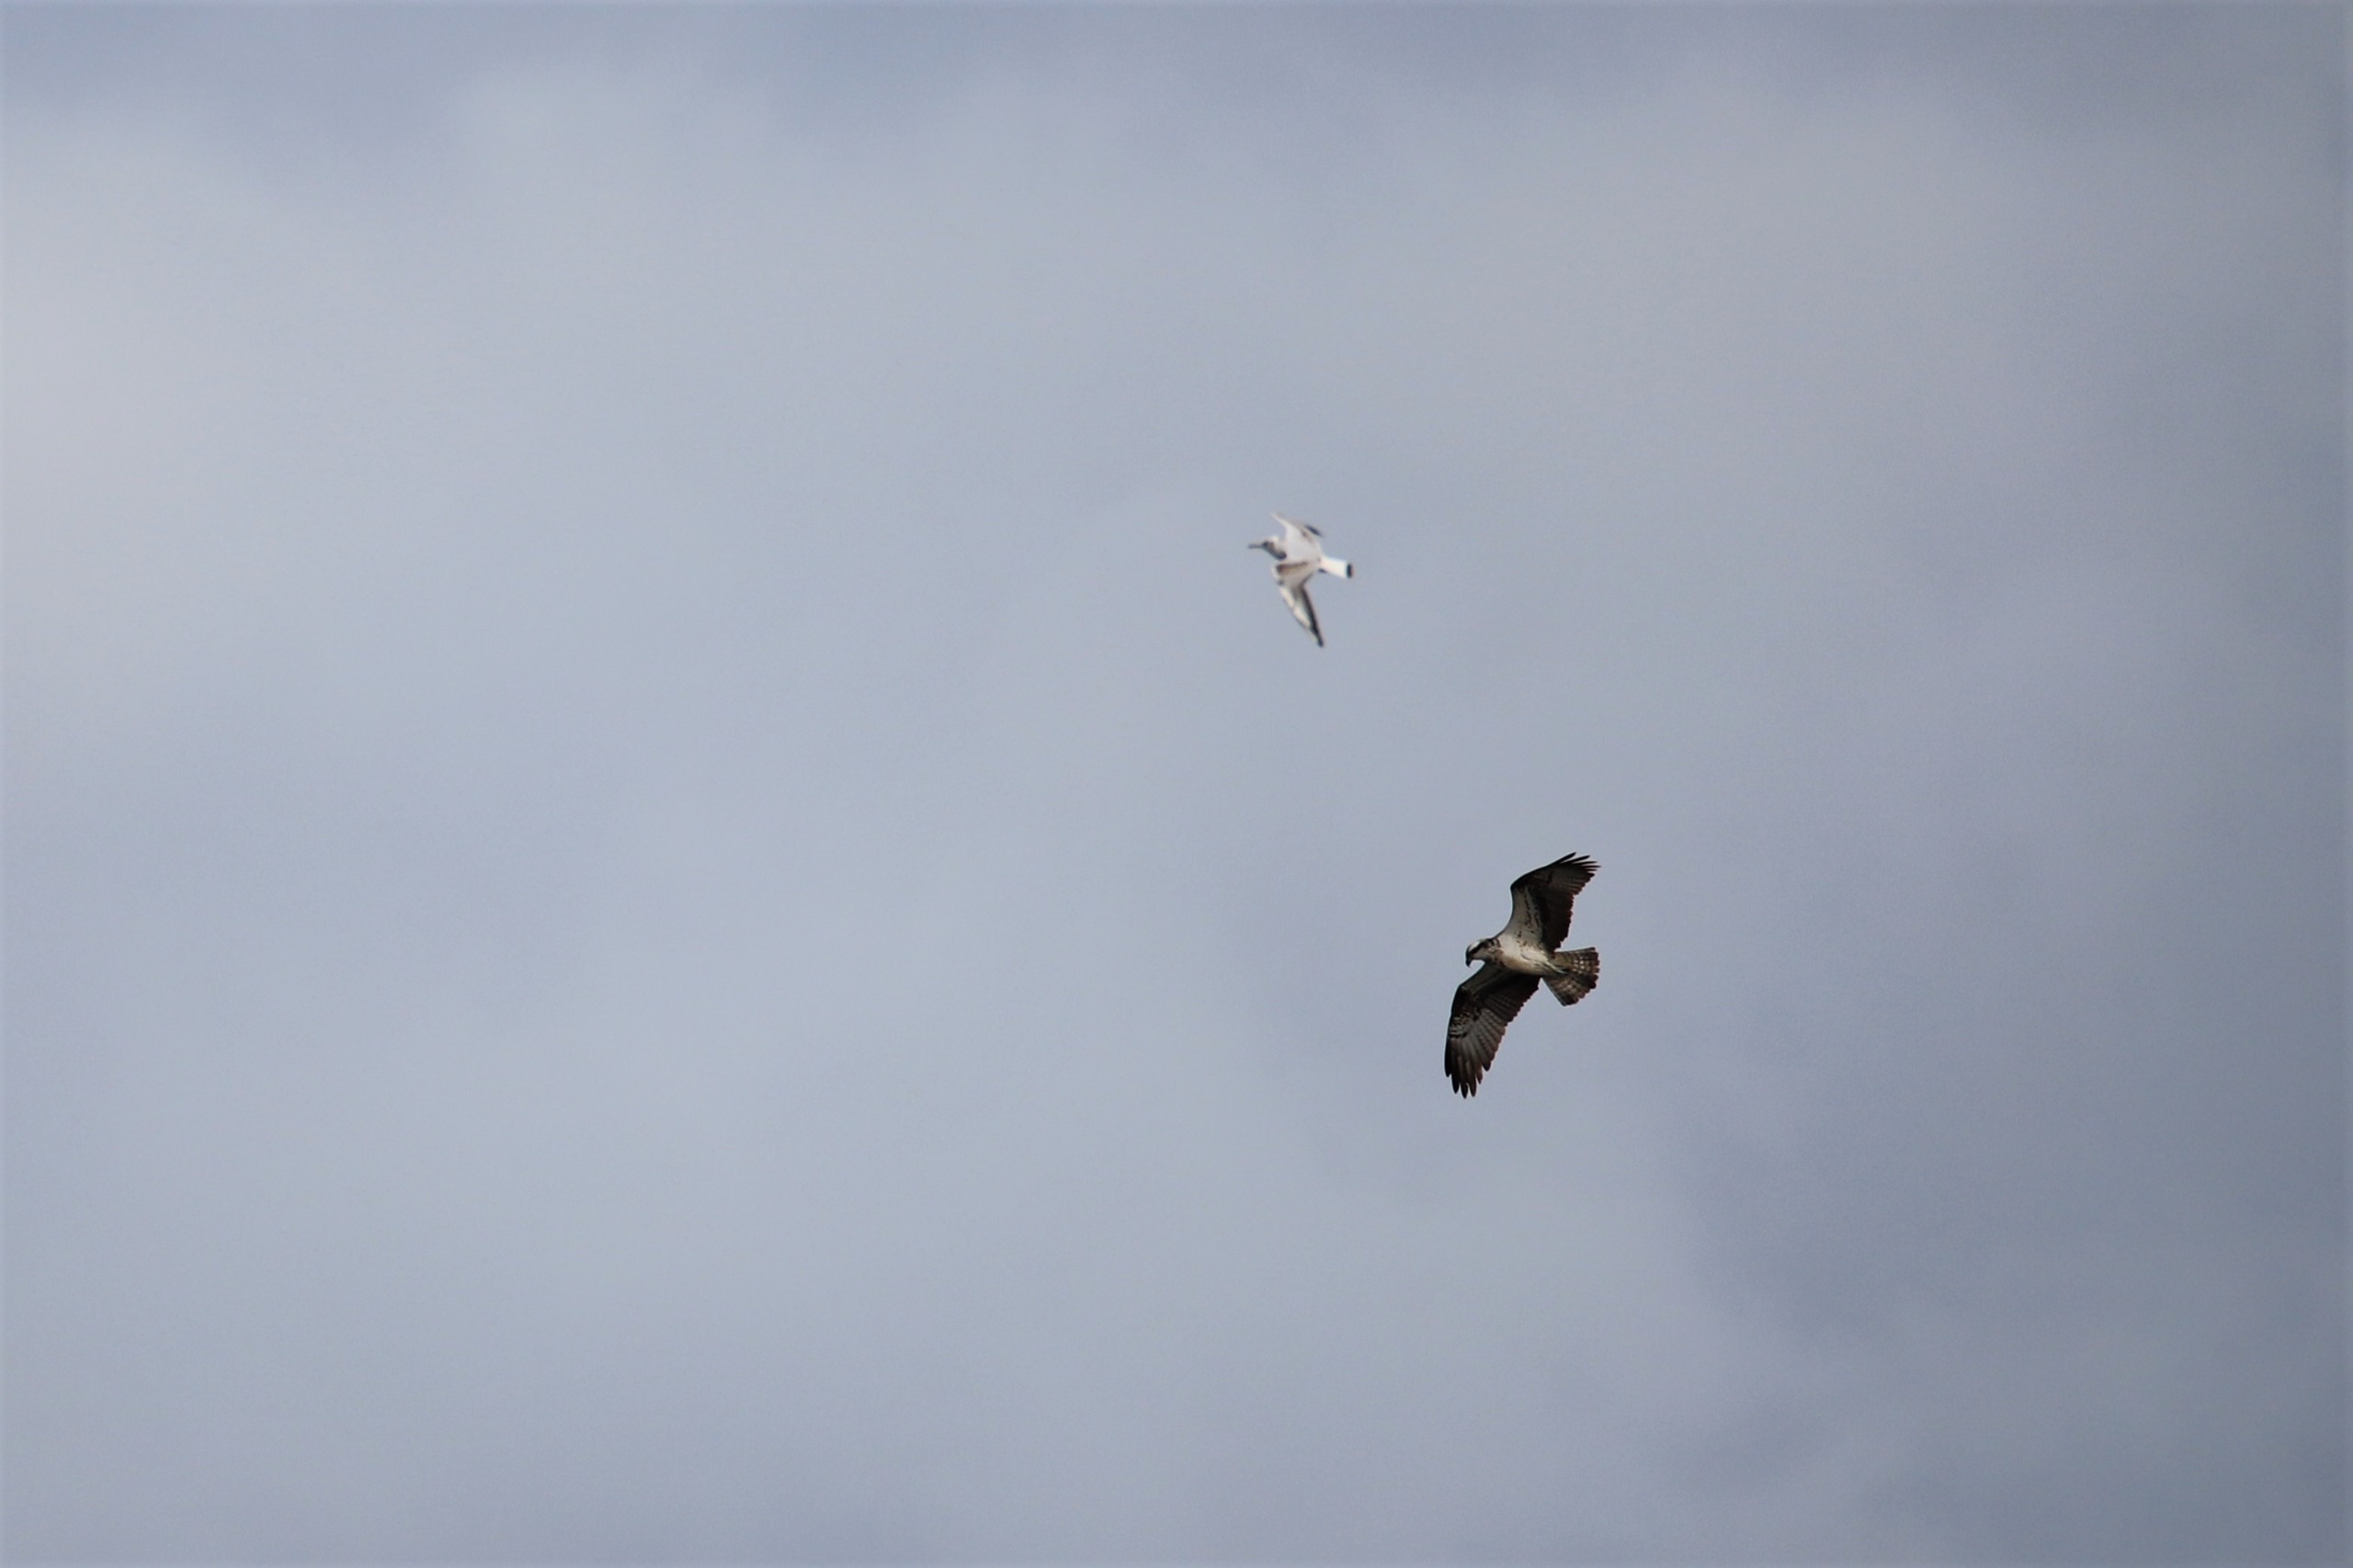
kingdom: Animalia
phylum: Chordata
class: Aves
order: Accipitriformes
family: Pandionidae
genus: Pandion
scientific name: Pandion haliaetus
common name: Fiskeørn
